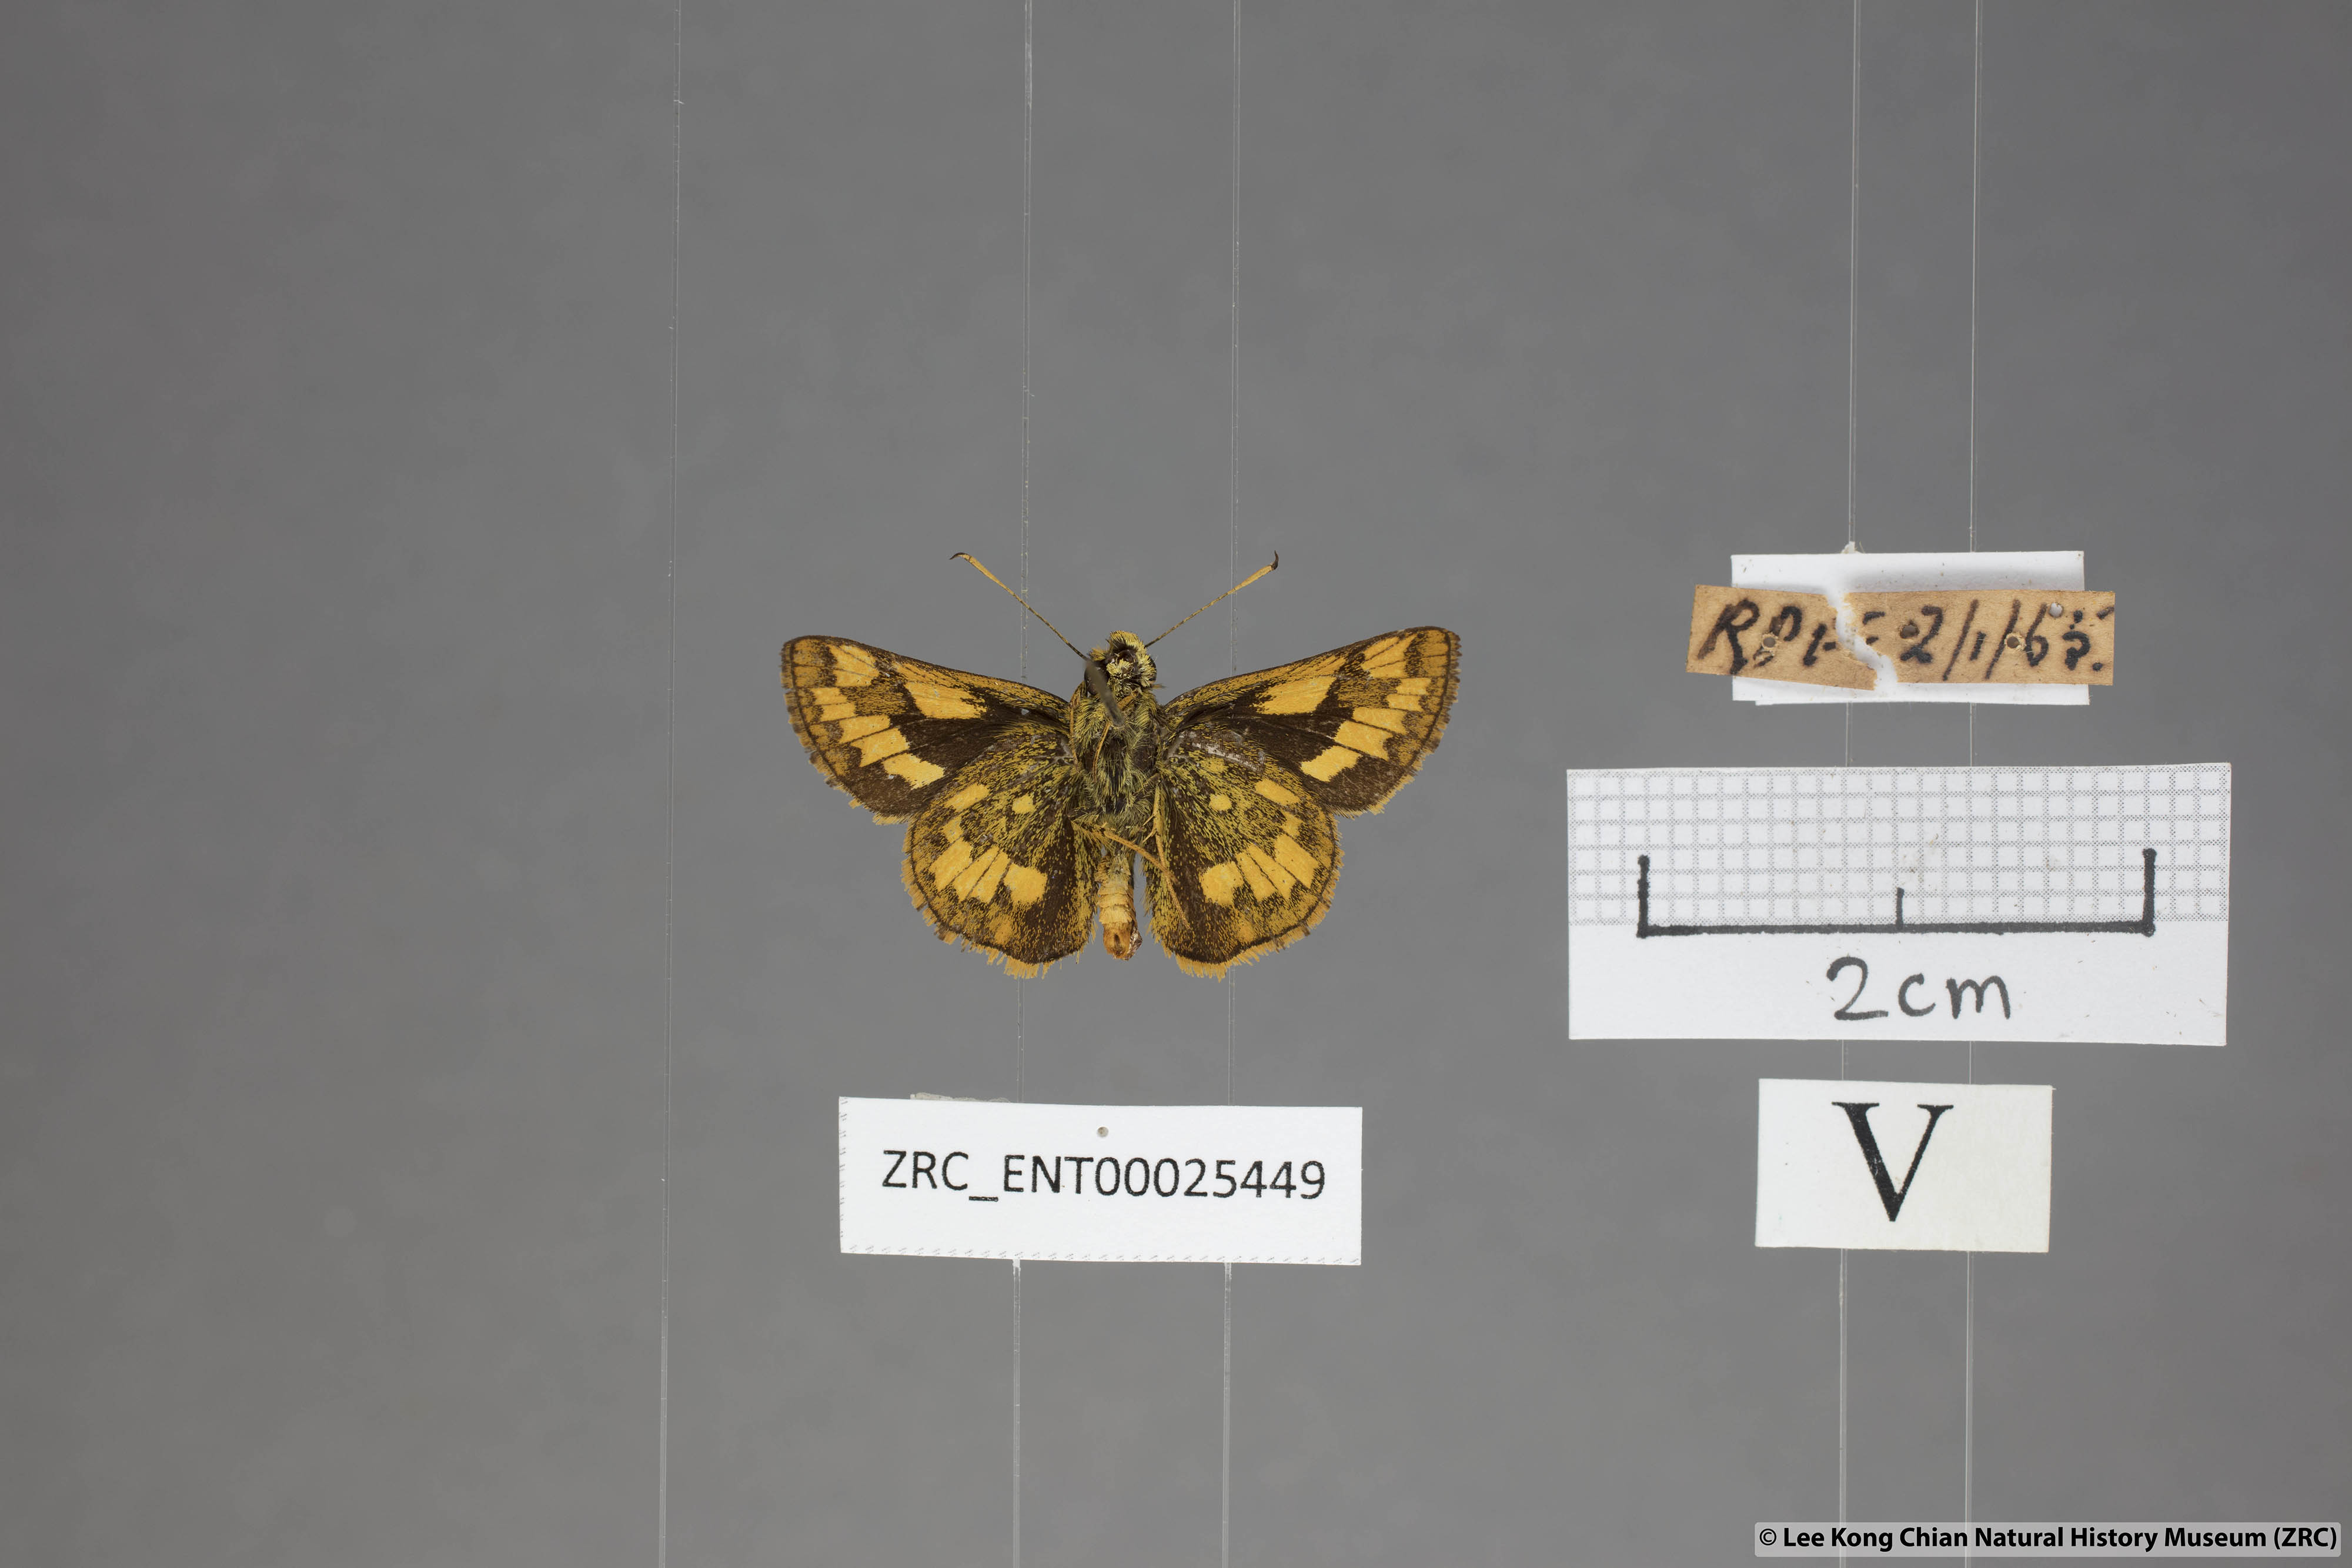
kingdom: Animalia
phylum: Arthropoda
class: Insecta
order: Lepidoptera
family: Hesperiidae
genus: Potanthus
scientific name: Potanthus omaha
